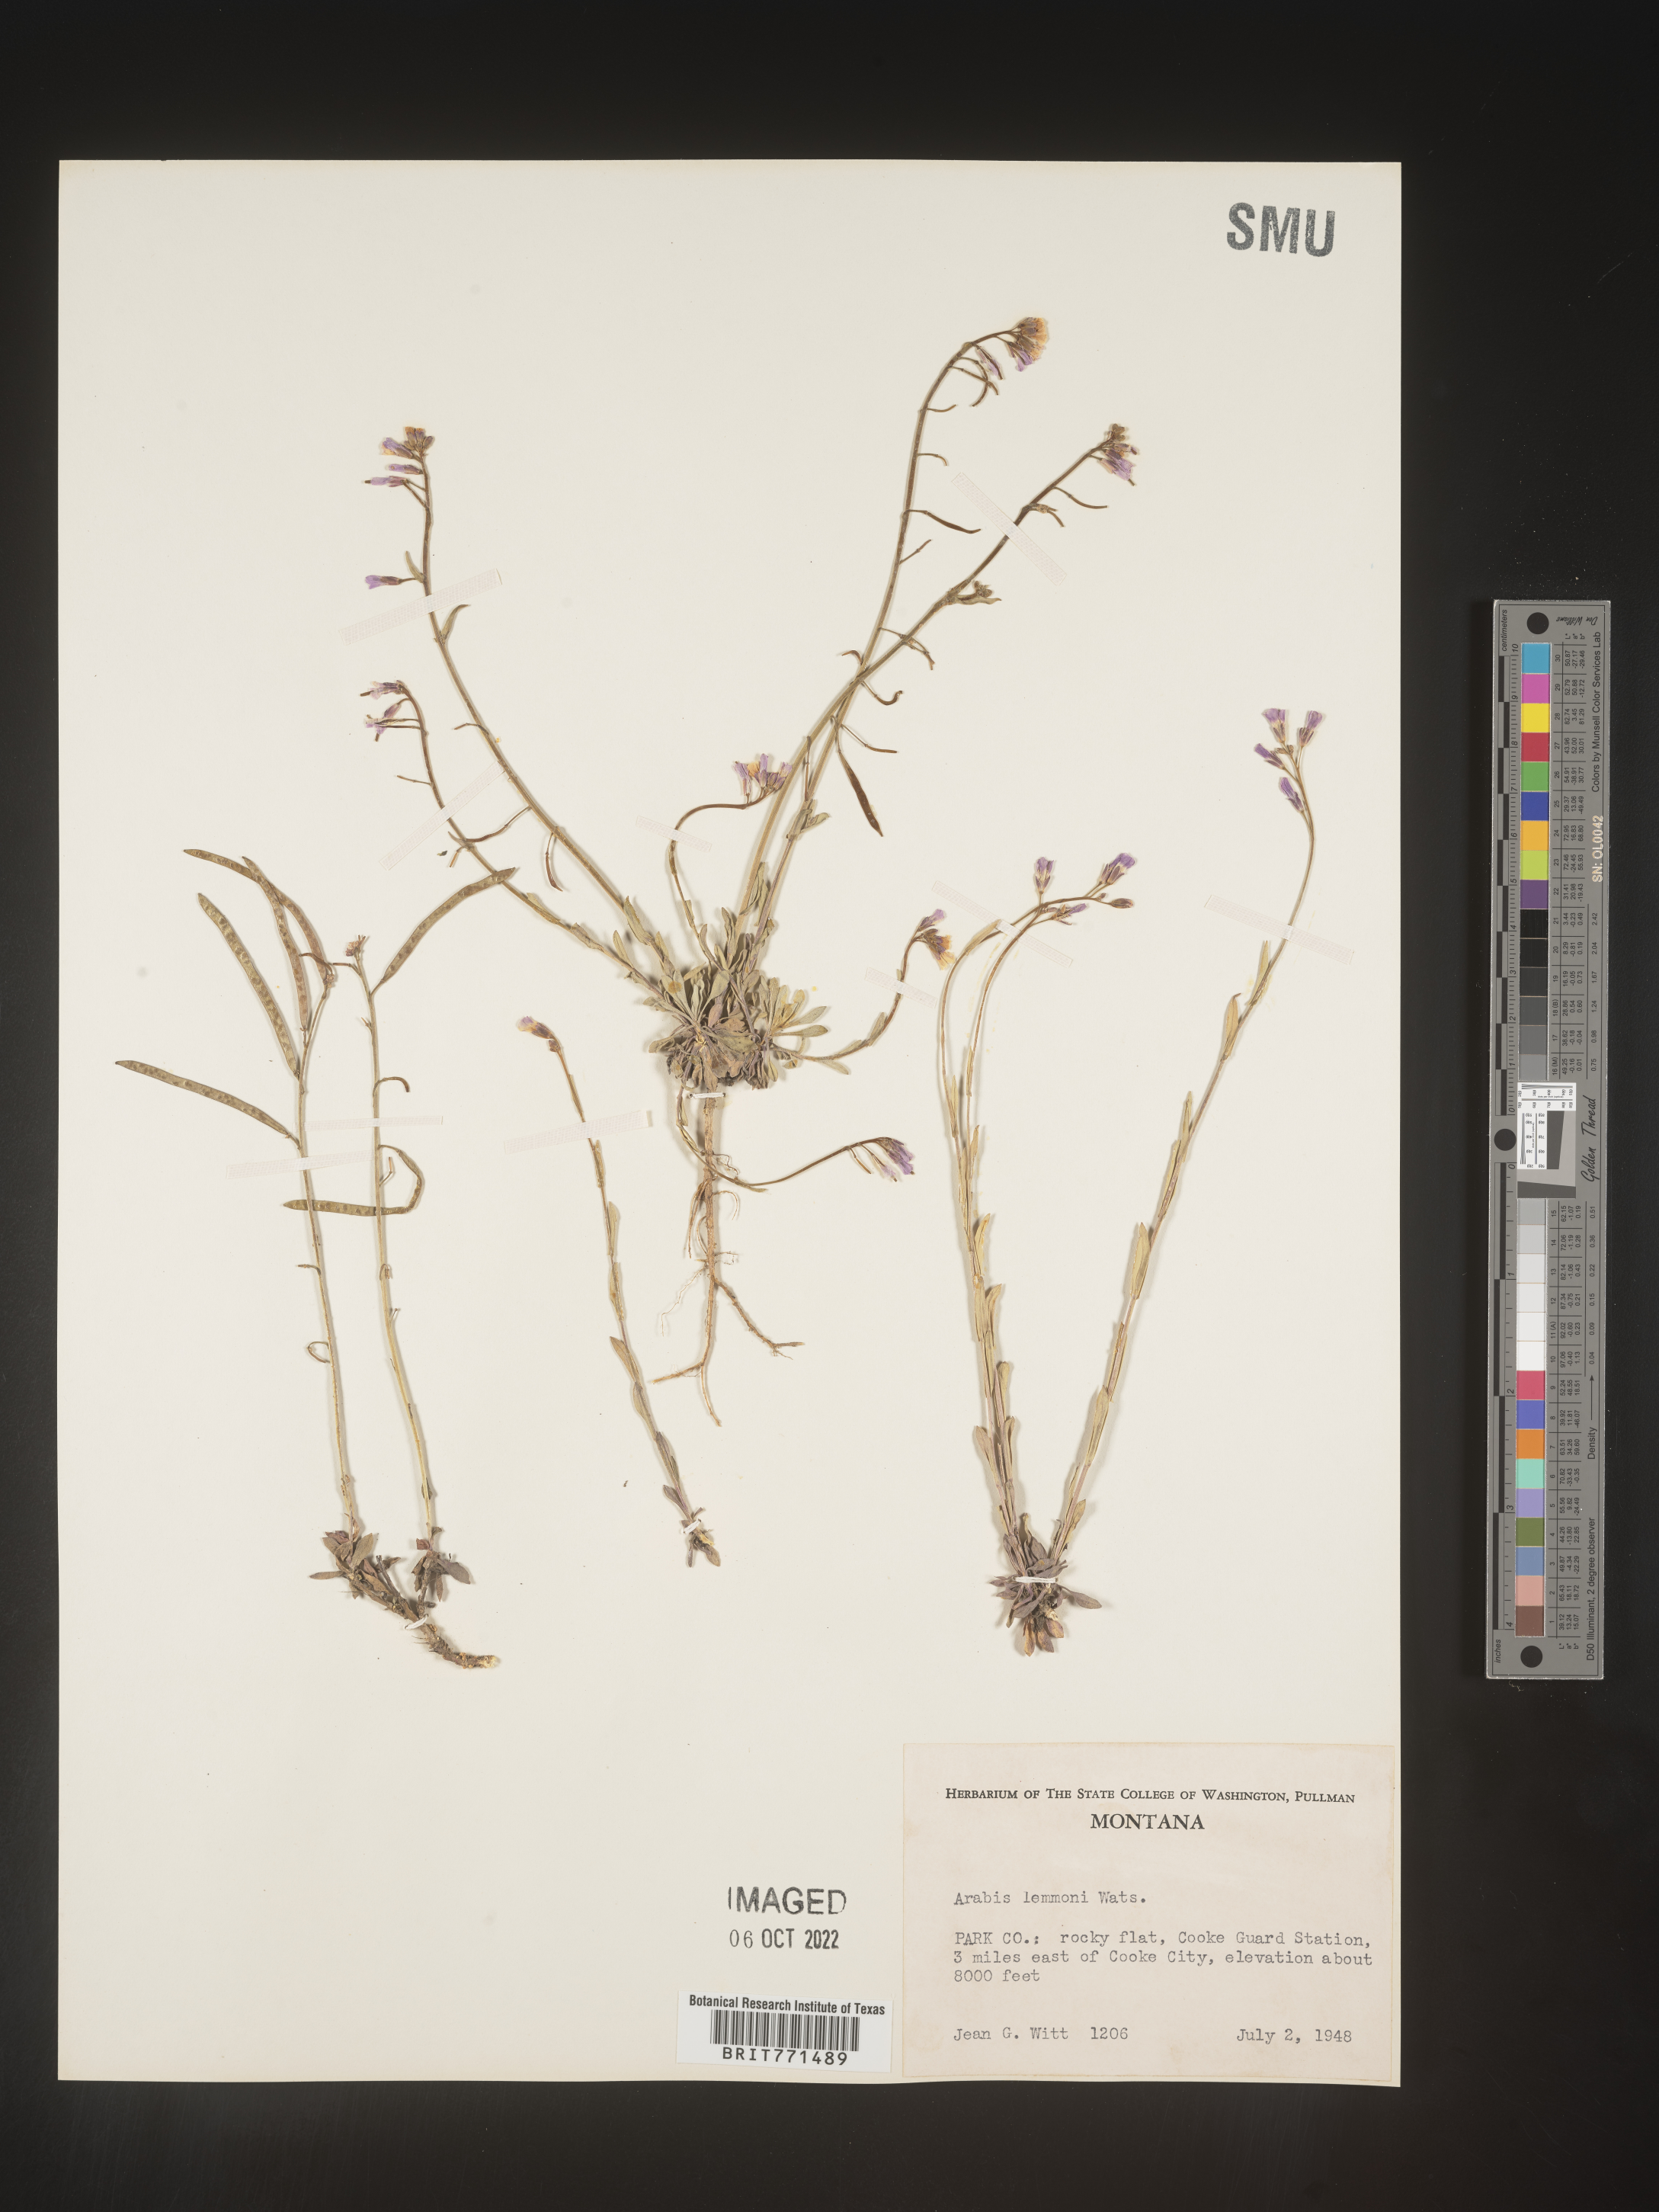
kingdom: Plantae
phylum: Tracheophyta
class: Magnoliopsida
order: Brassicales
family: Brassicaceae
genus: Arabis
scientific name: Arabis
